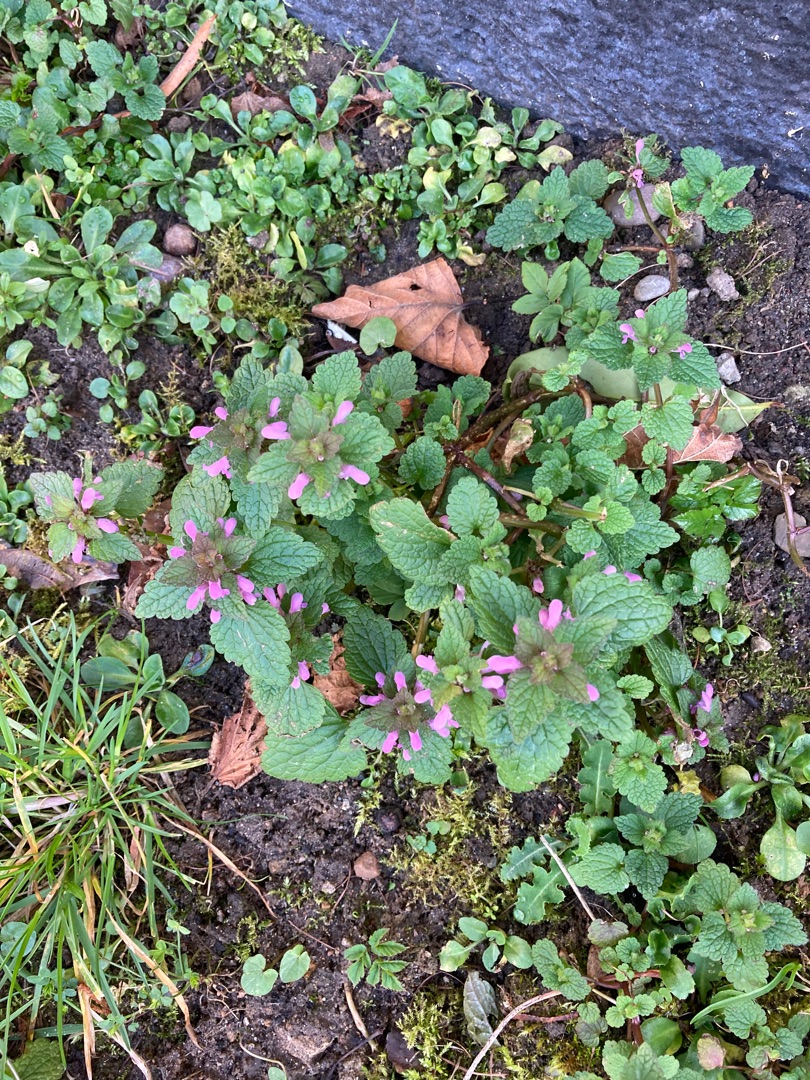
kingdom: Plantae
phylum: Tracheophyta
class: Magnoliopsida
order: Lamiales
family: Lamiaceae
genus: Lamium
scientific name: Lamium purpureum
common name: Rød tvetand
